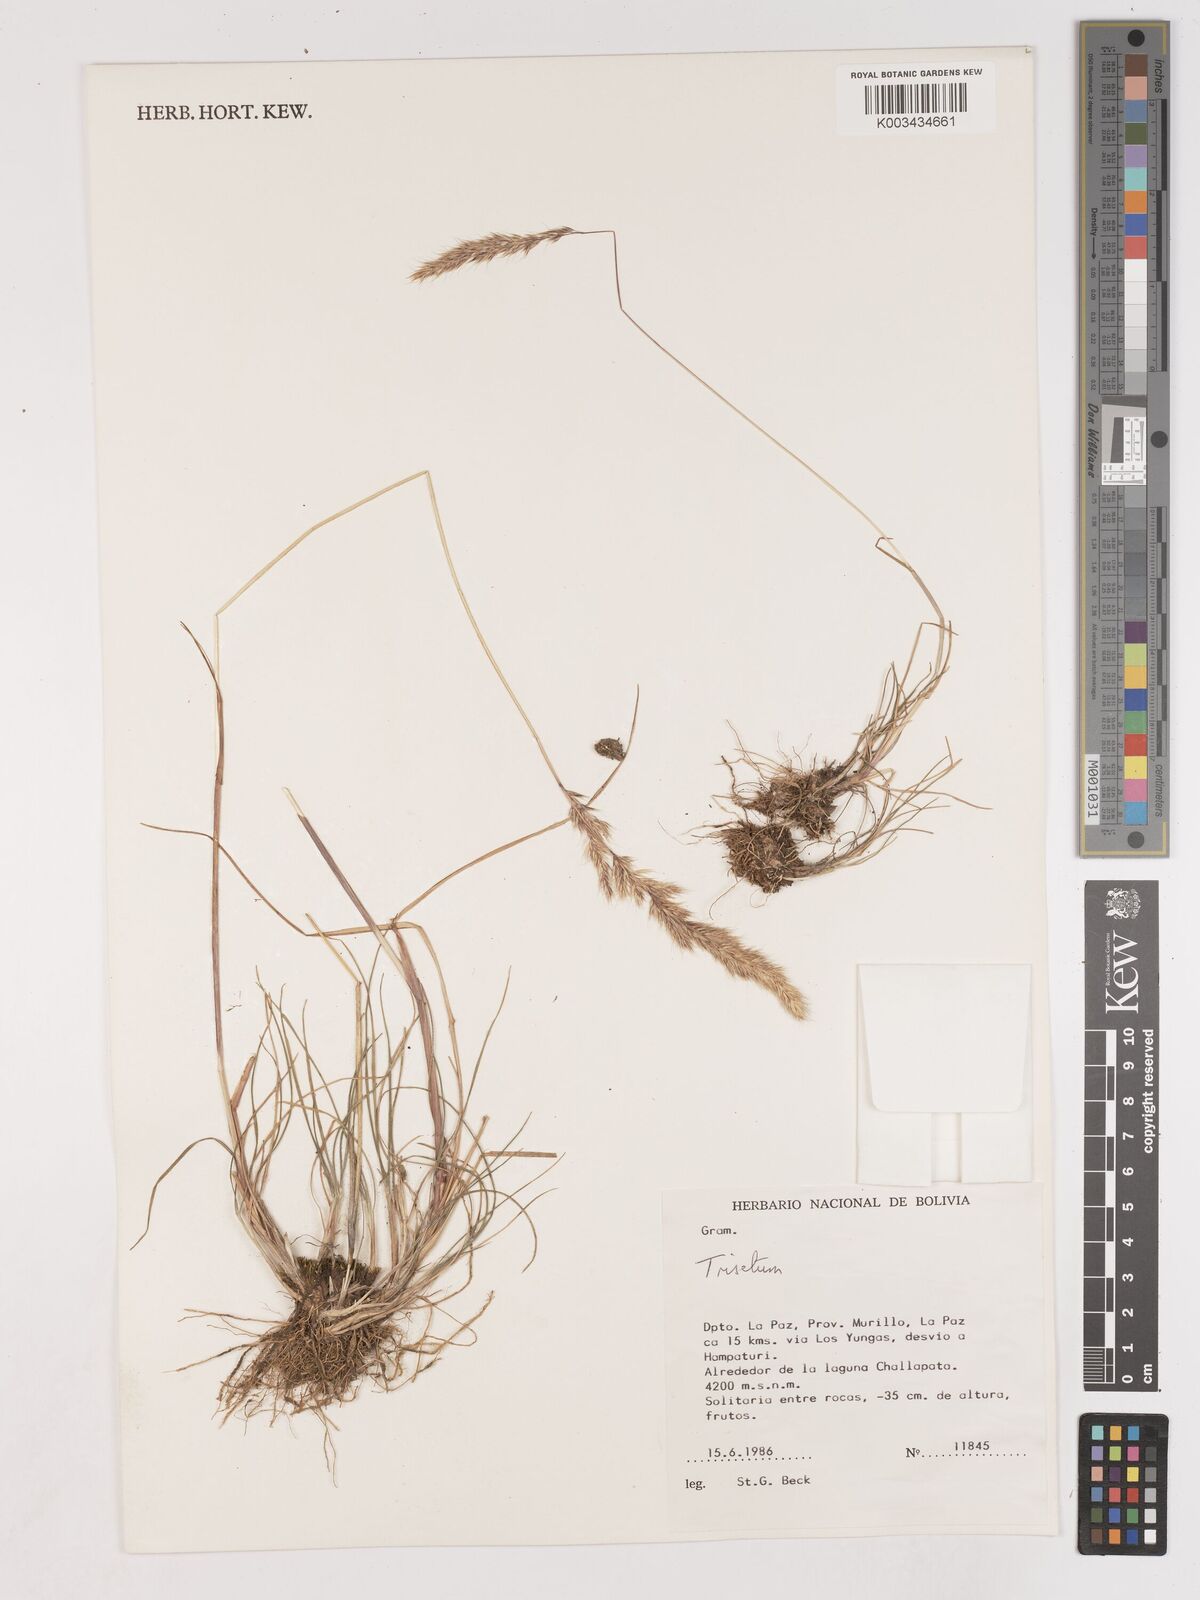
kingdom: Plantae
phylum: Tracheophyta
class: Liliopsida
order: Poales
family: Poaceae
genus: Cinnagrostis
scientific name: Cinnagrostis heterophylla
